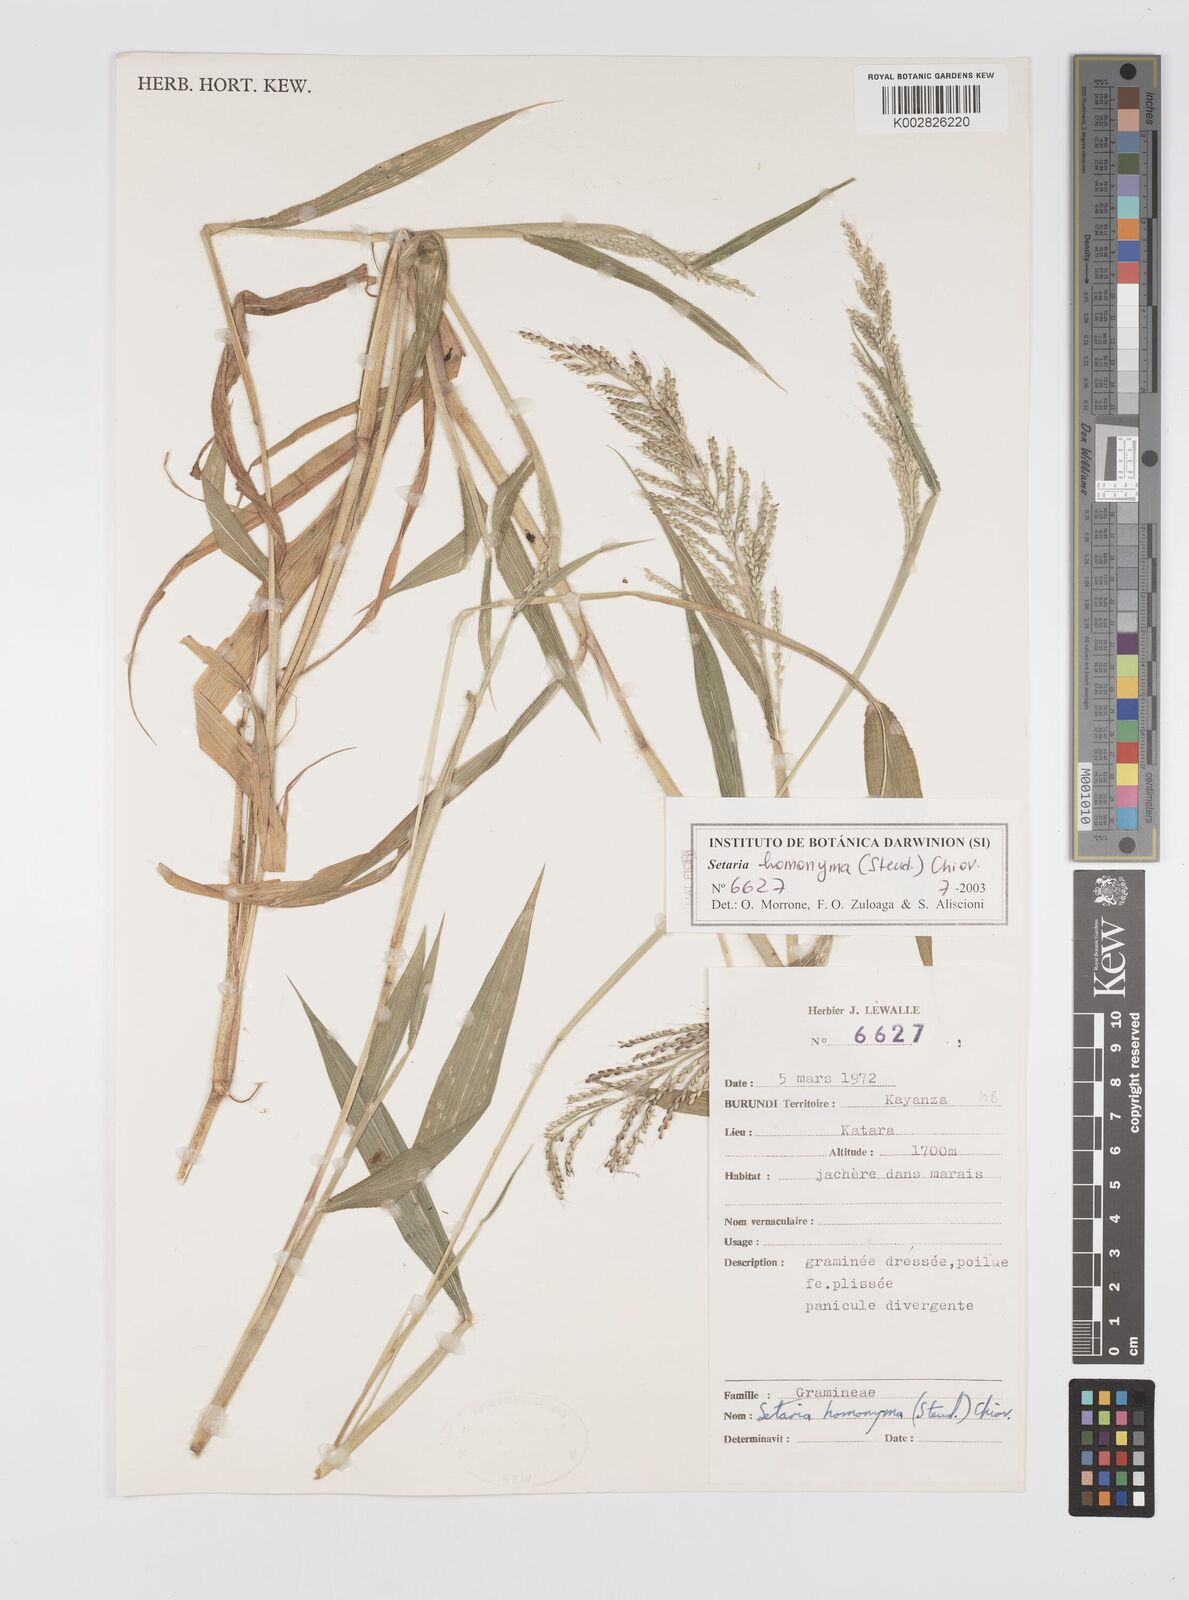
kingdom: Plantae
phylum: Tracheophyta
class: Liliopsida
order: Poales
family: Poaceae
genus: Setaria
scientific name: Setaria homonyma
